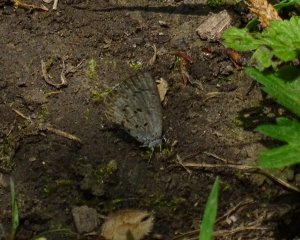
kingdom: Animalia
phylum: Arthropoda
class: Insecta
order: Lepidoptera
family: Lycaenidae
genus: Celastrina
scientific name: Celastrina lucia
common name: Northern Spring Azure
